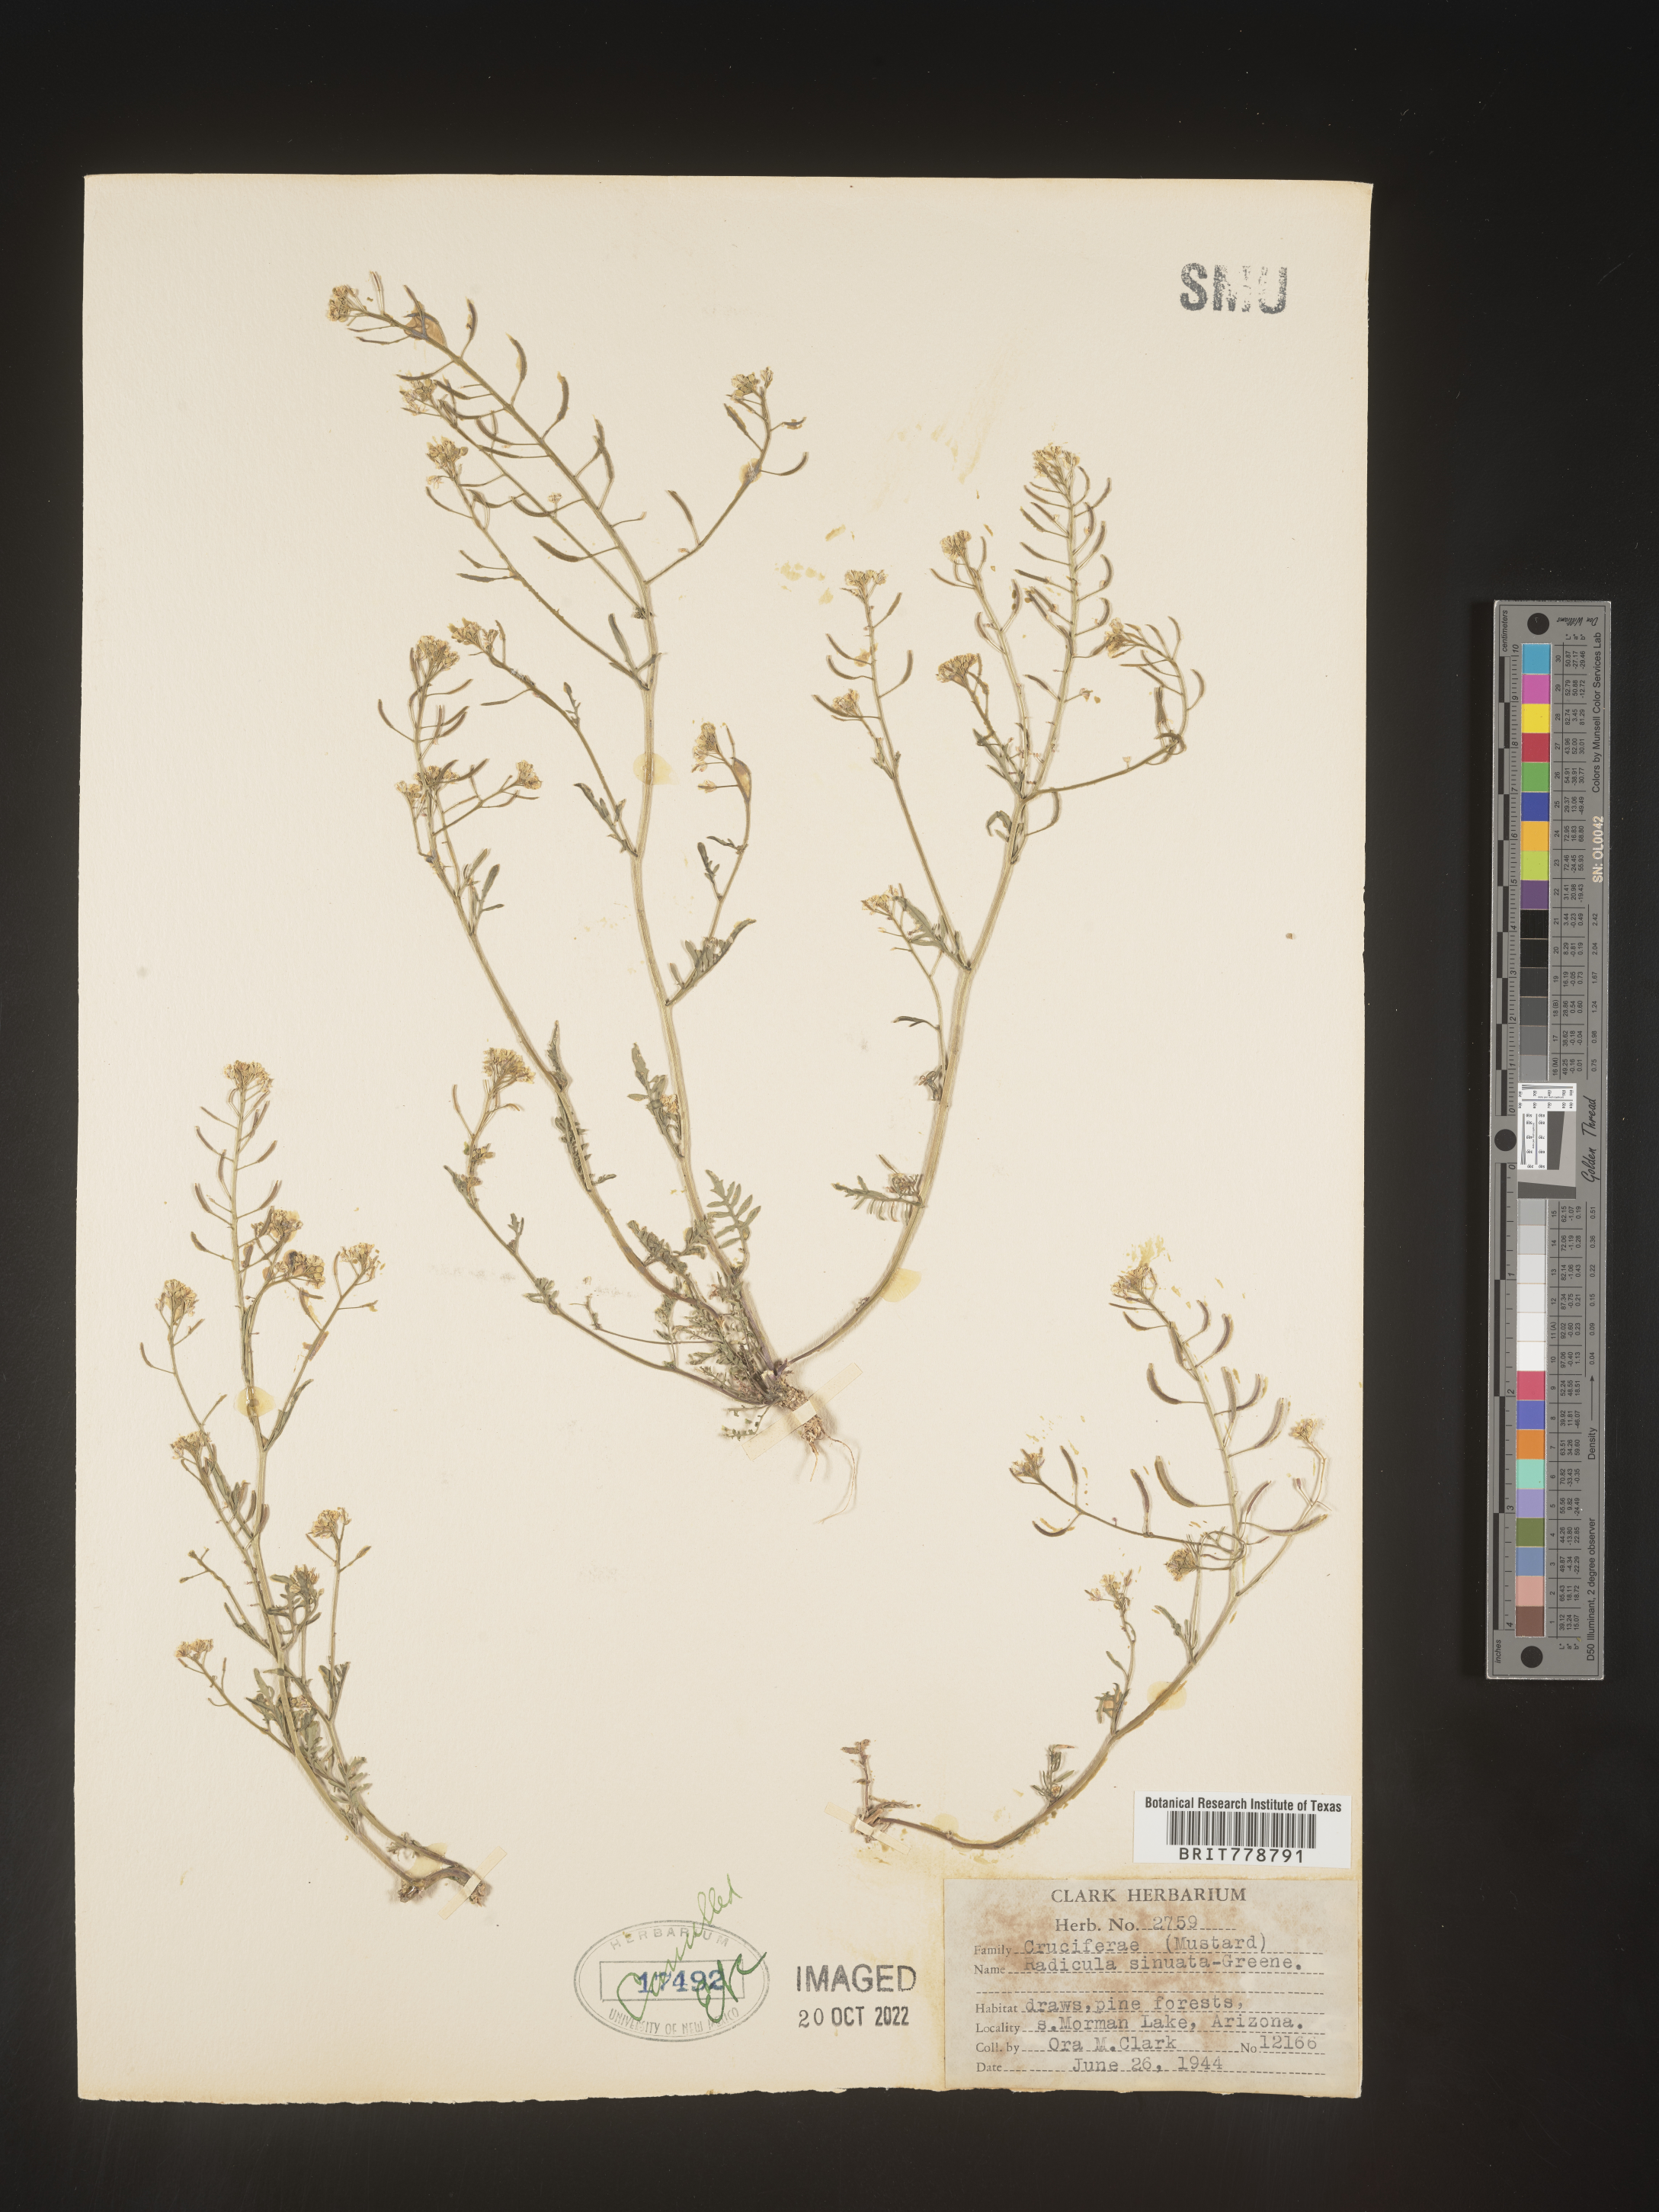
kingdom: Plantae
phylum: Tracheophyta
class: Magnoliopsida
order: Brassicales
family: Brassicaceae
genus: Rorippa
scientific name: Rorippa sinuata
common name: Spread yellow cress
